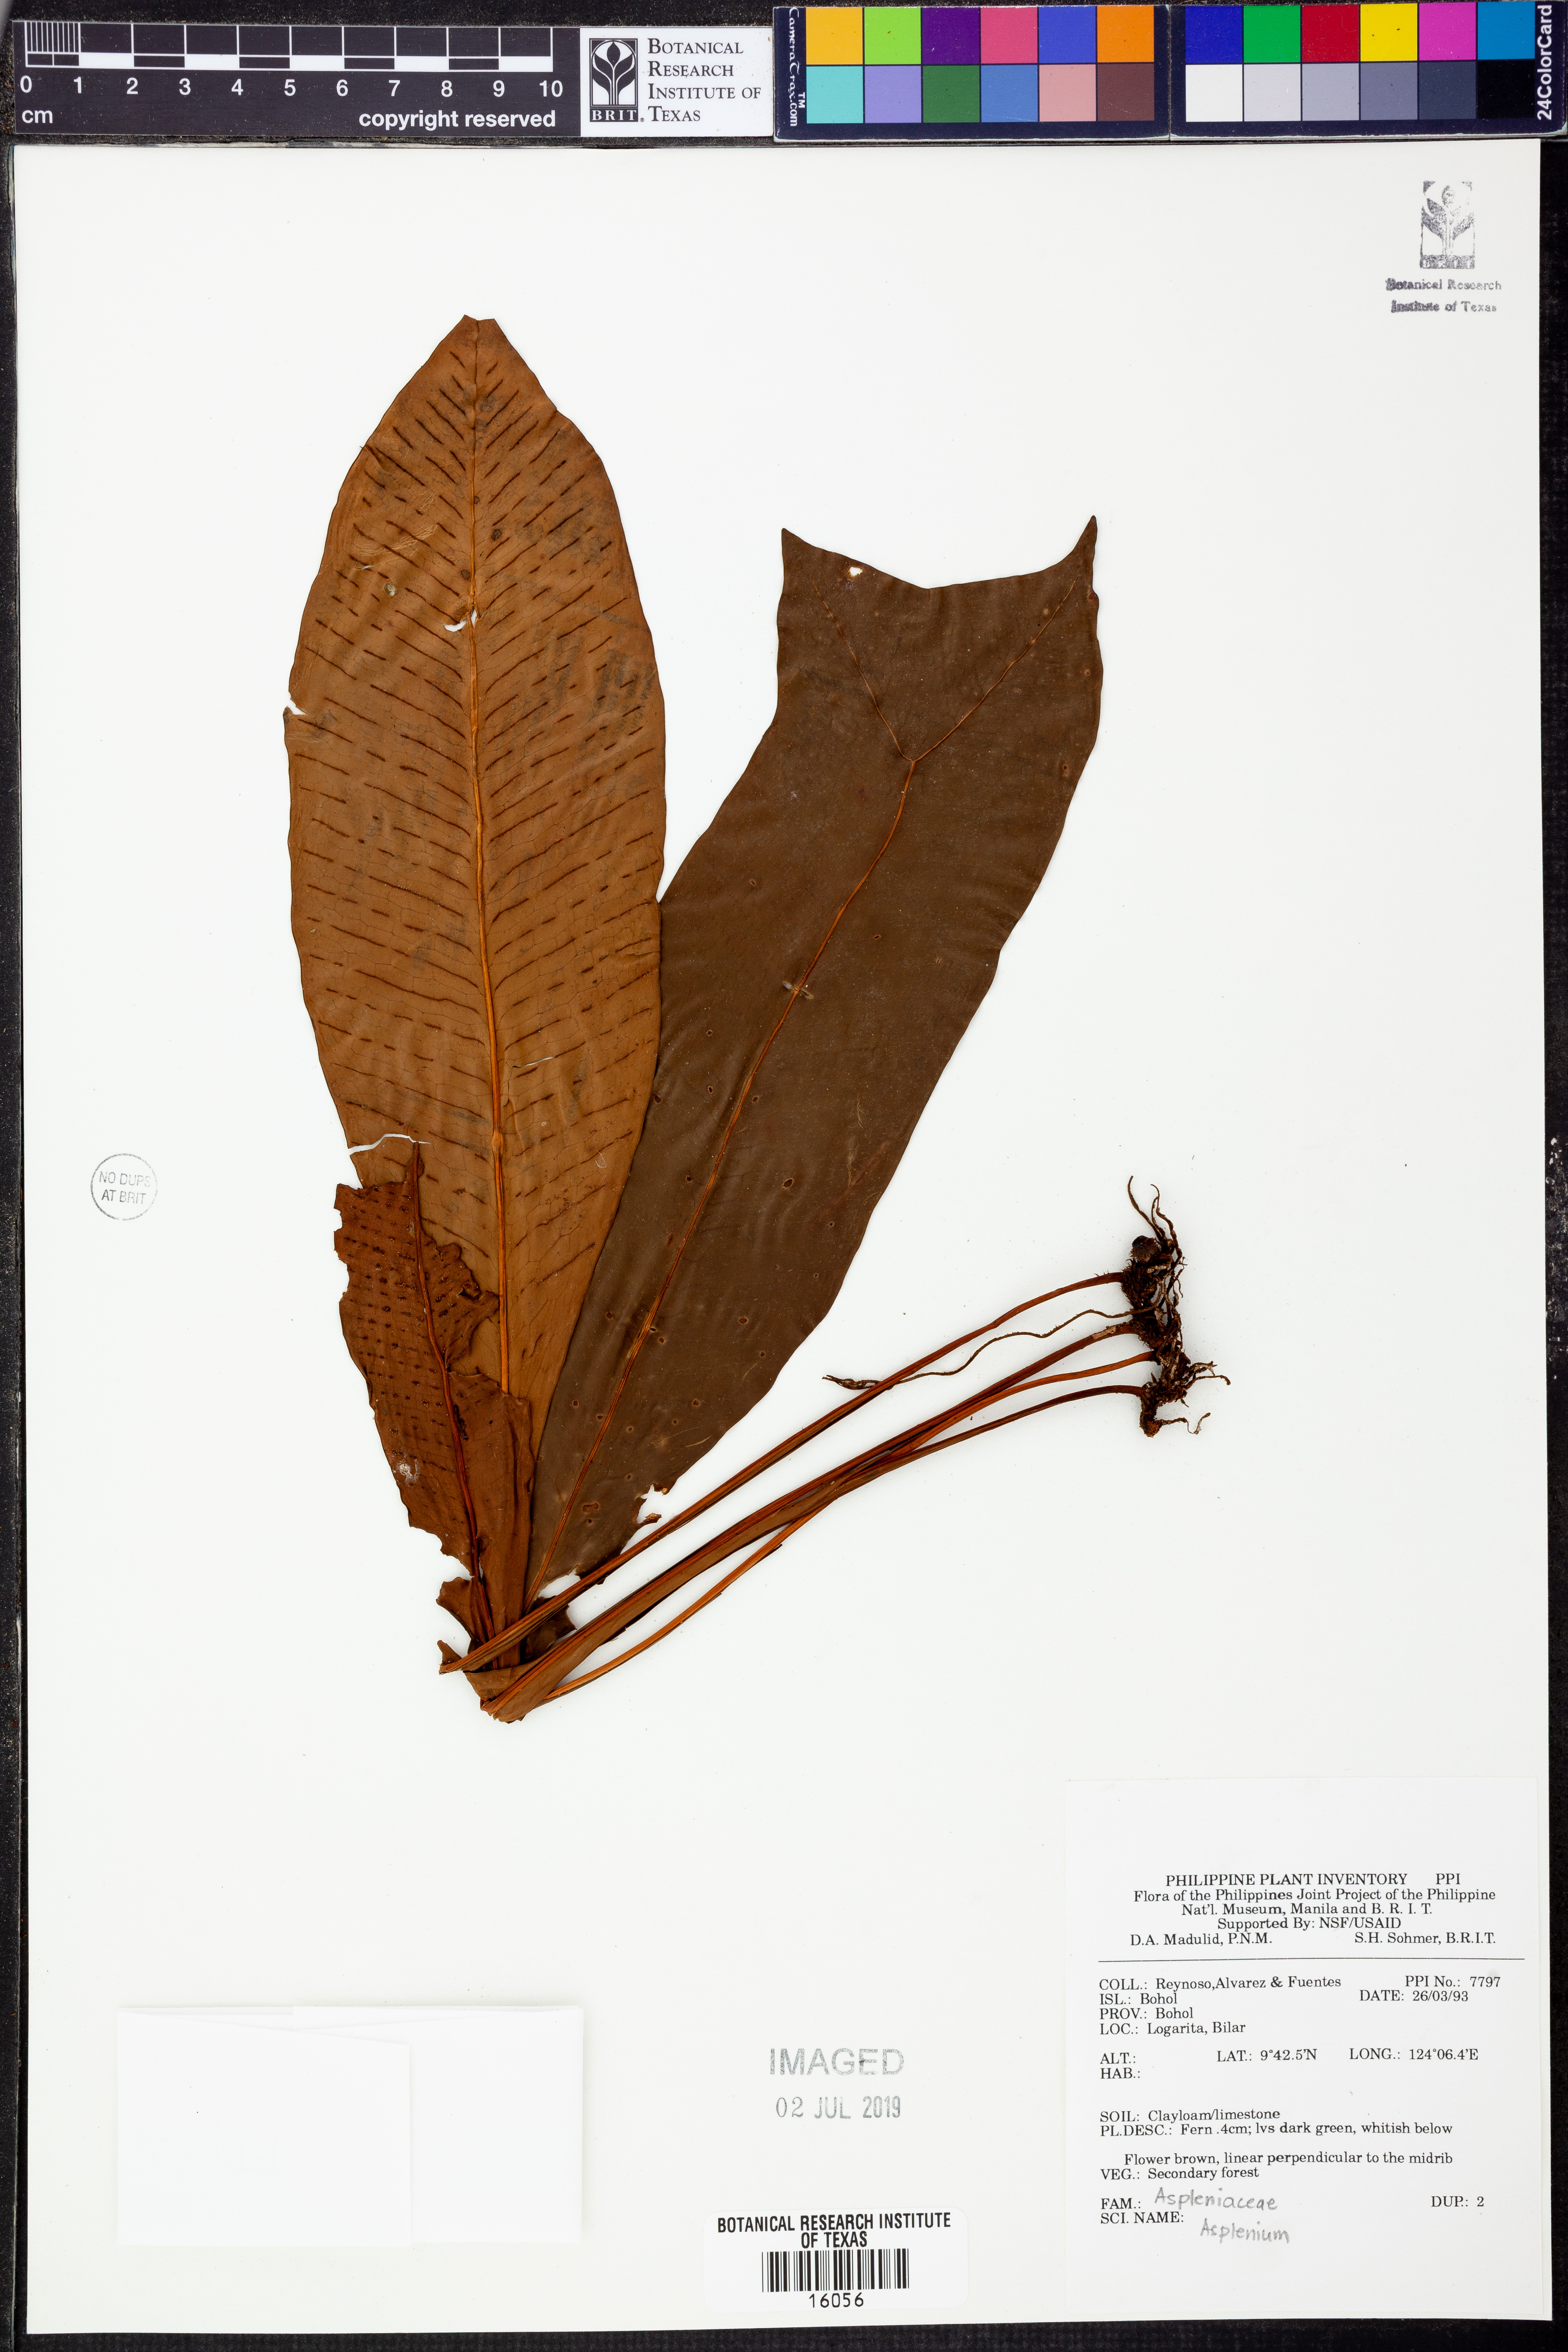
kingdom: Plantae
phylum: Tracheophyta
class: Polypodiopsida
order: Polypodiales
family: Aspleniaceae
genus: Asplenium
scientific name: Asplenium
